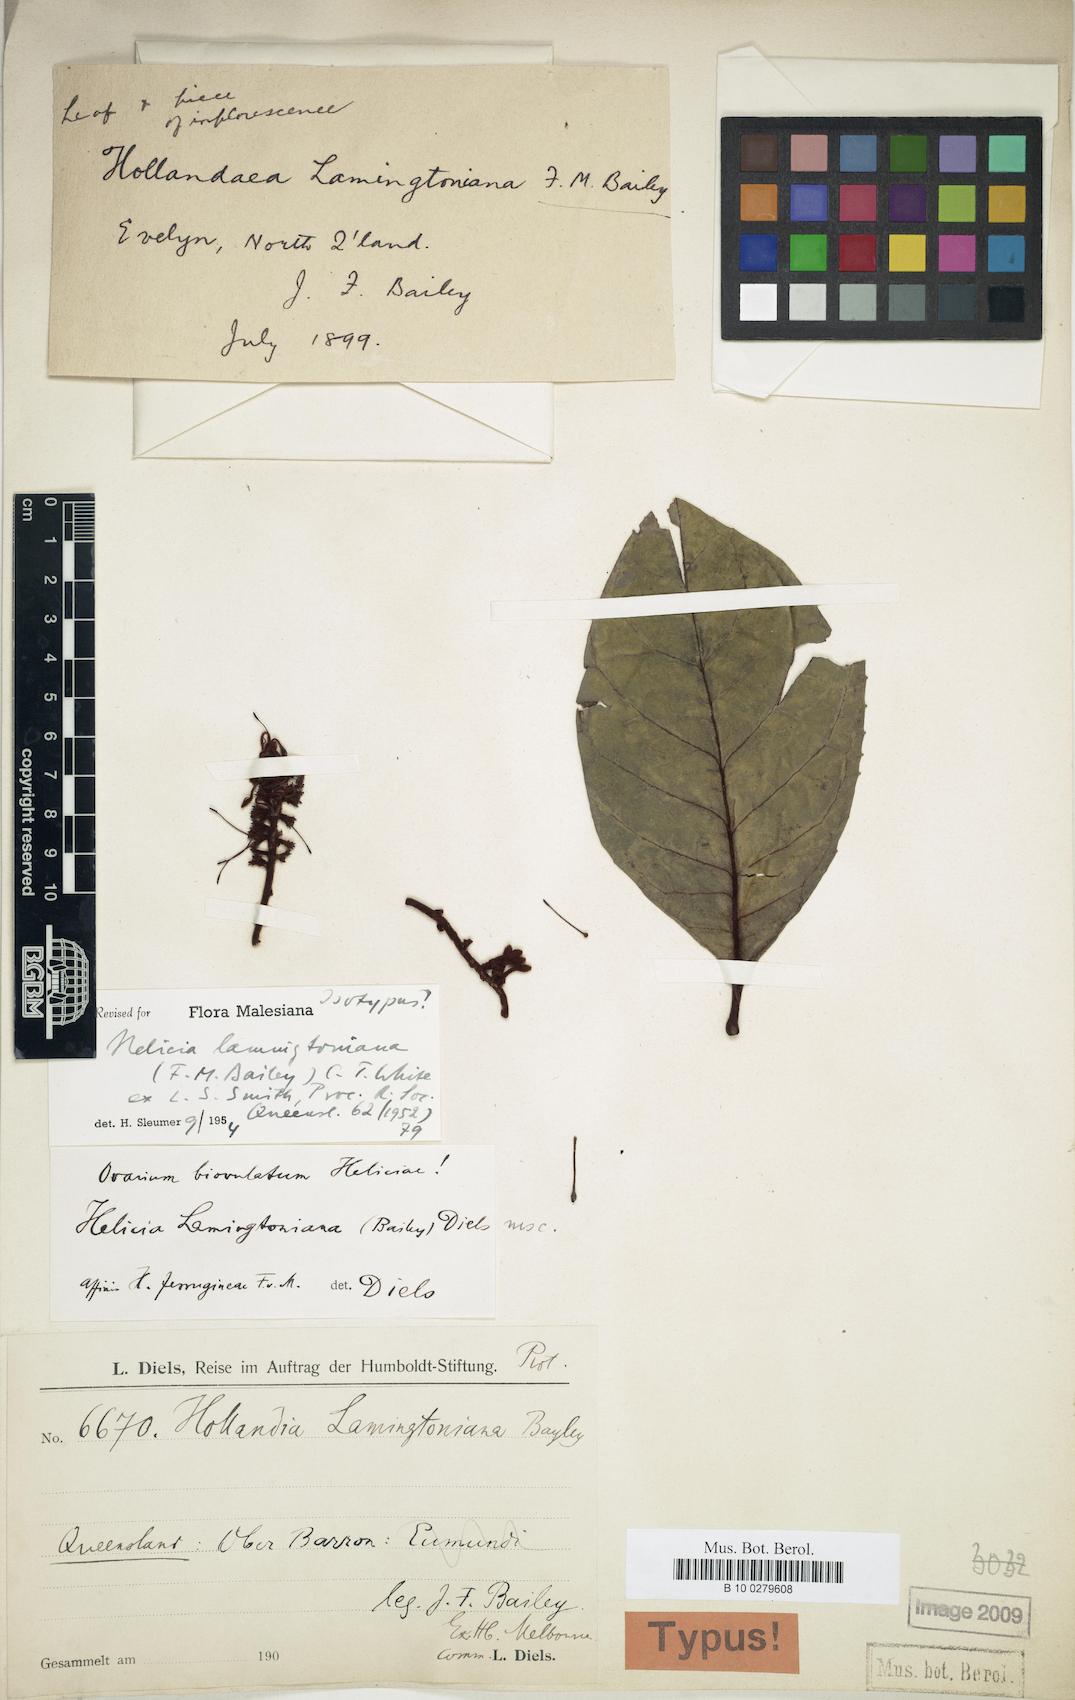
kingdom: Plantae
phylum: Tracheophyta
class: Magnoliopsida
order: Proteales
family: Proteaceae
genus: Helicia
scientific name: Helicia lamingtoniana
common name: Silky oak
